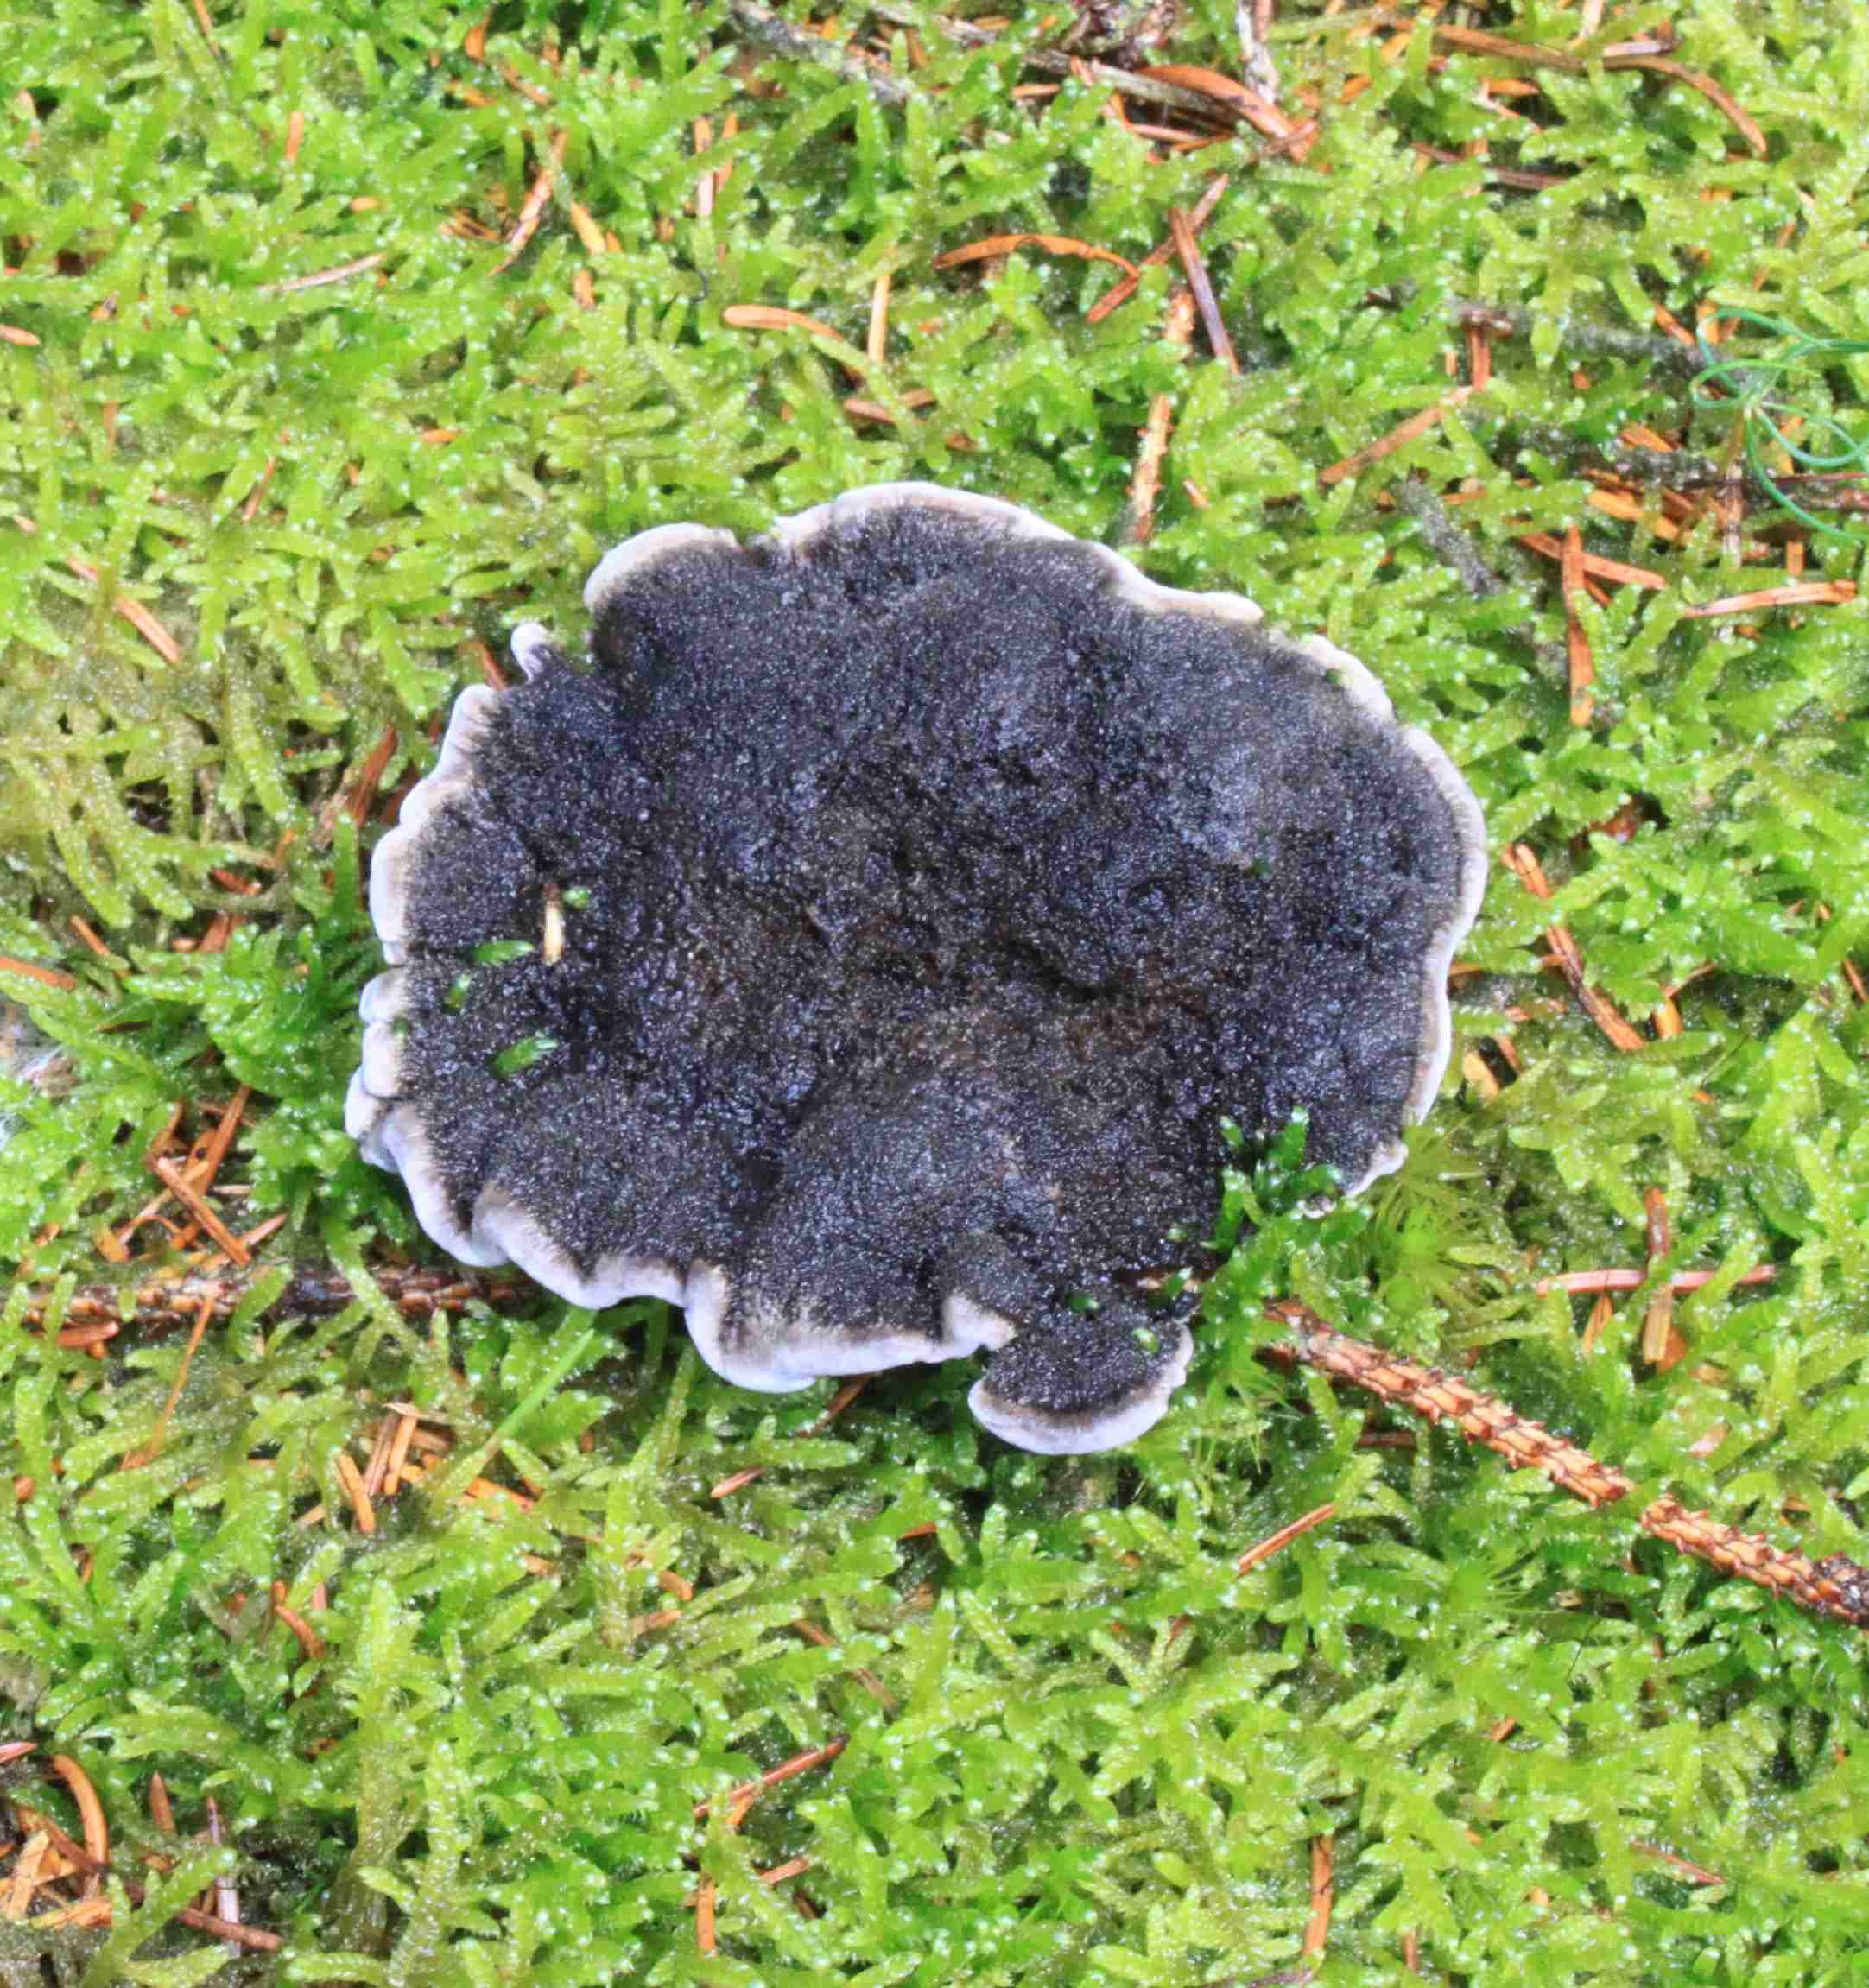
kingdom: Fungi
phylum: Basidiomycota
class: Agaricomycetes
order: Thelephorales
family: Thelephoraceae
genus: Phellodon
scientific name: Phellodon
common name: mørk duftpigsvamp
